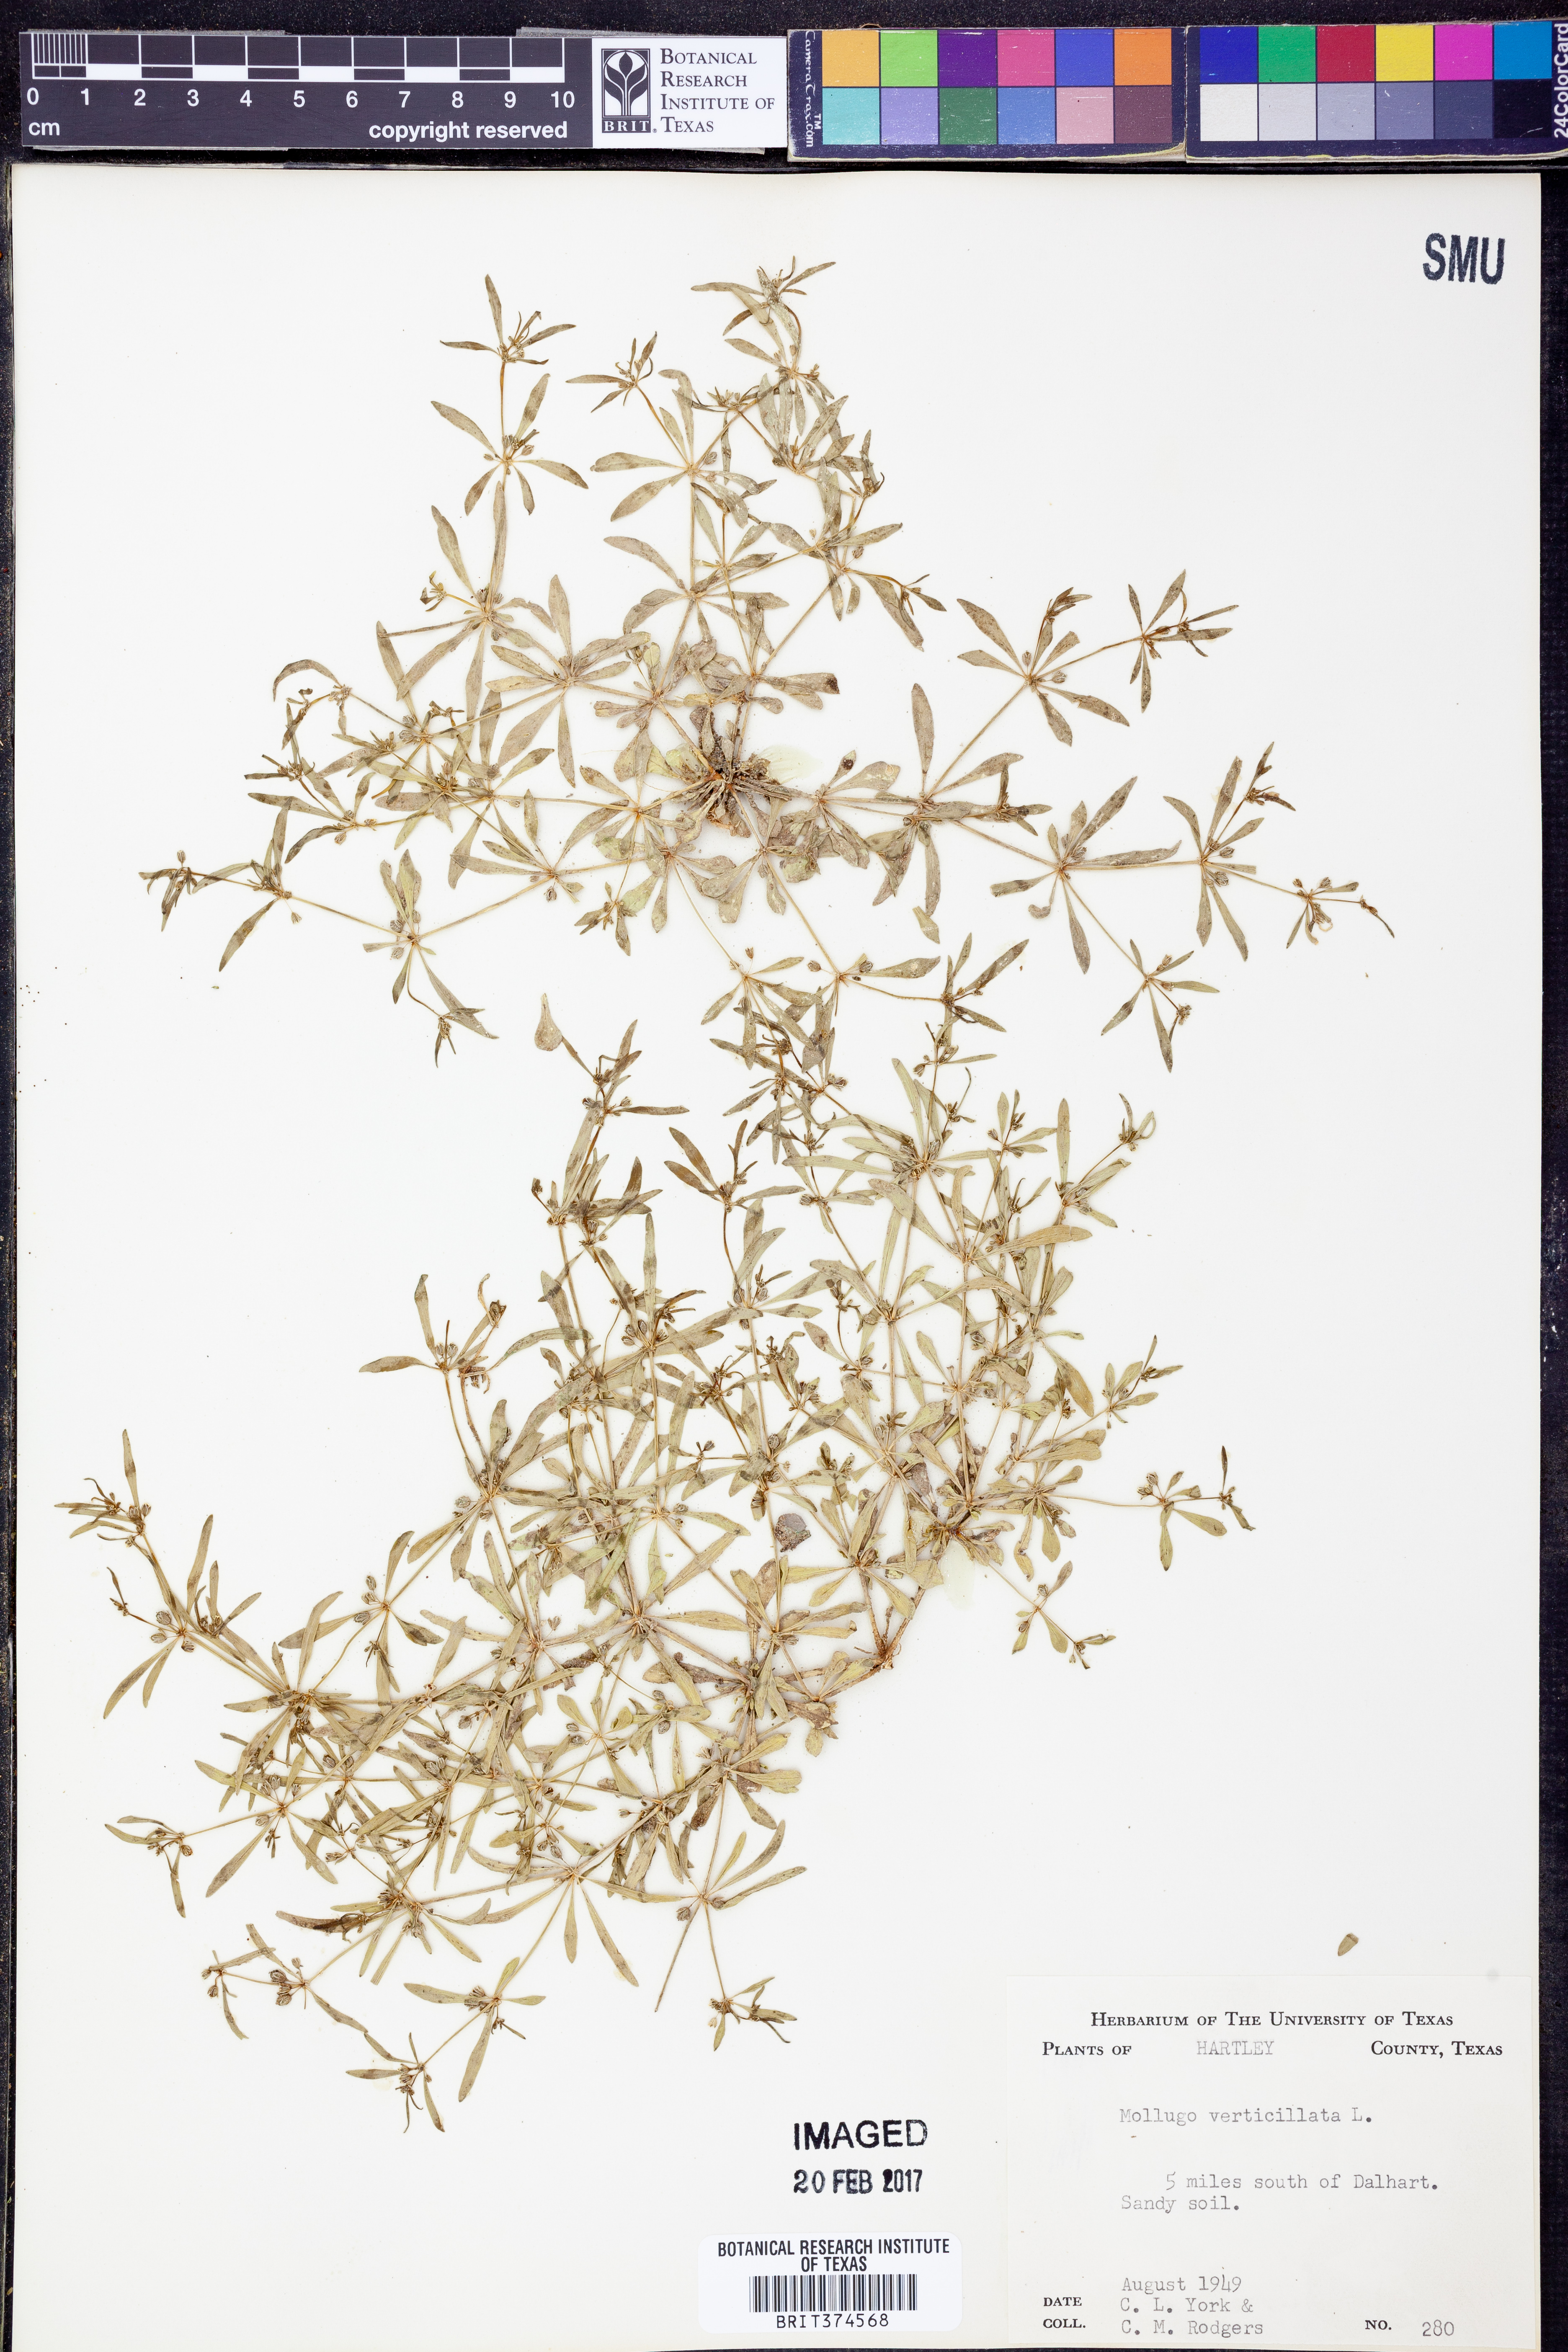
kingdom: Plantae
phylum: Tracheophyta
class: Magnoliopsida
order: Caryophyllales
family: Molluginaceae
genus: Mollugo
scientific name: Mollugo verticillata
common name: Green carpetweed
